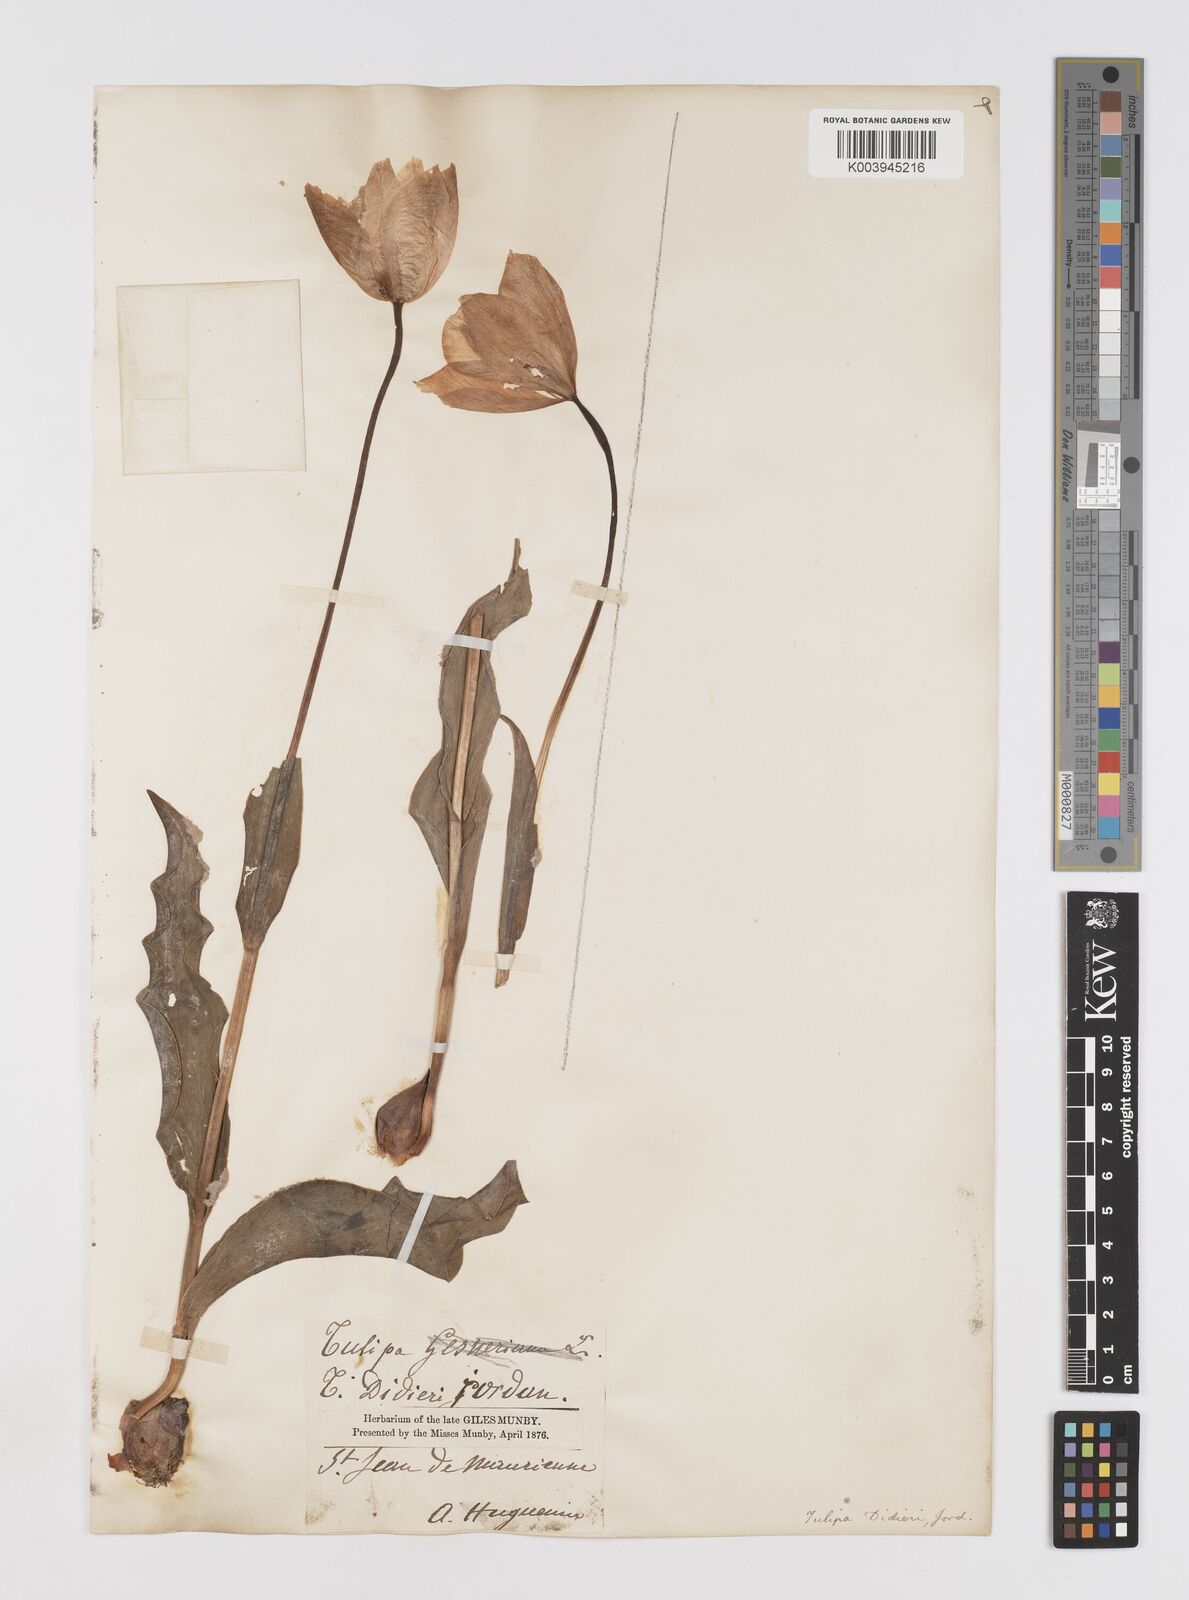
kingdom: Plantae
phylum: Tracheophyta
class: Liliopsida
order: Liliales
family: Liliaceae
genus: Tulipa
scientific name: Tulipa gesneriana
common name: Garden tulip
